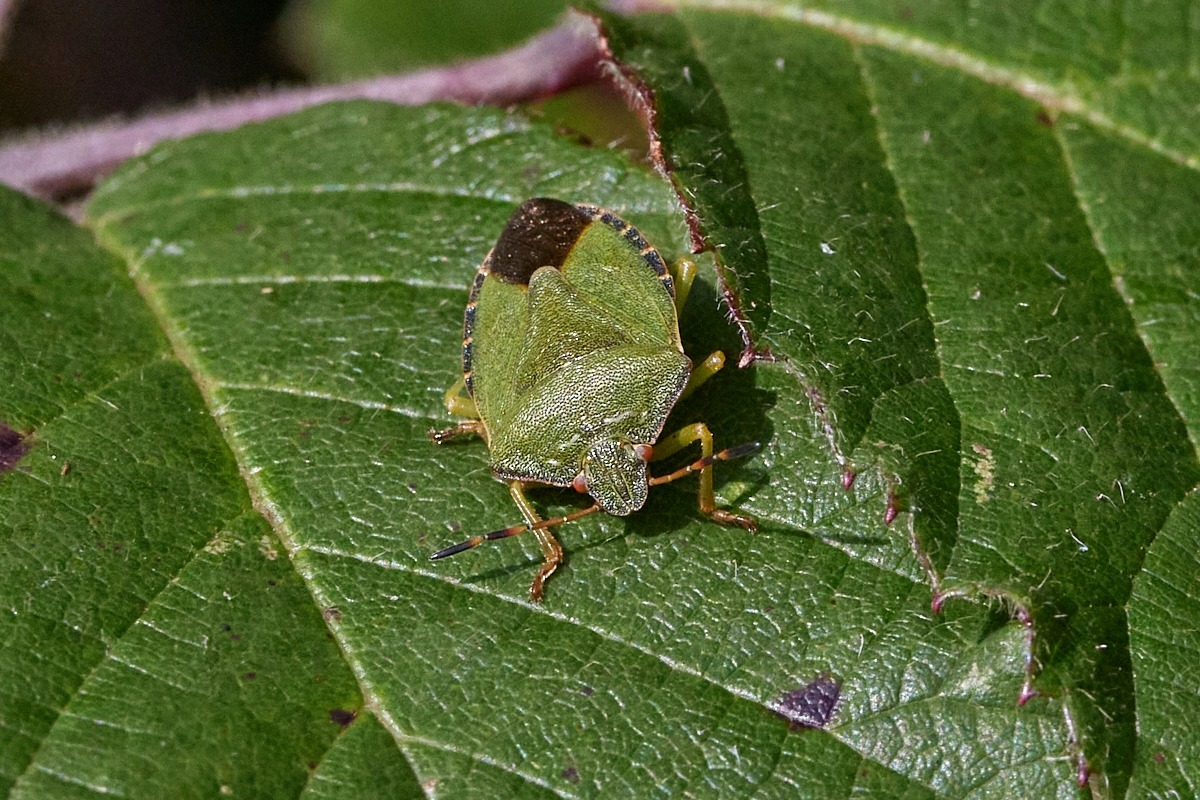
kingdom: Animalia
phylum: Arthropoda
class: Insecta
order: Hemiptera
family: Pentatomidae
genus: Palomena
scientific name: Palomena prasina
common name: Grøn bredtæge
